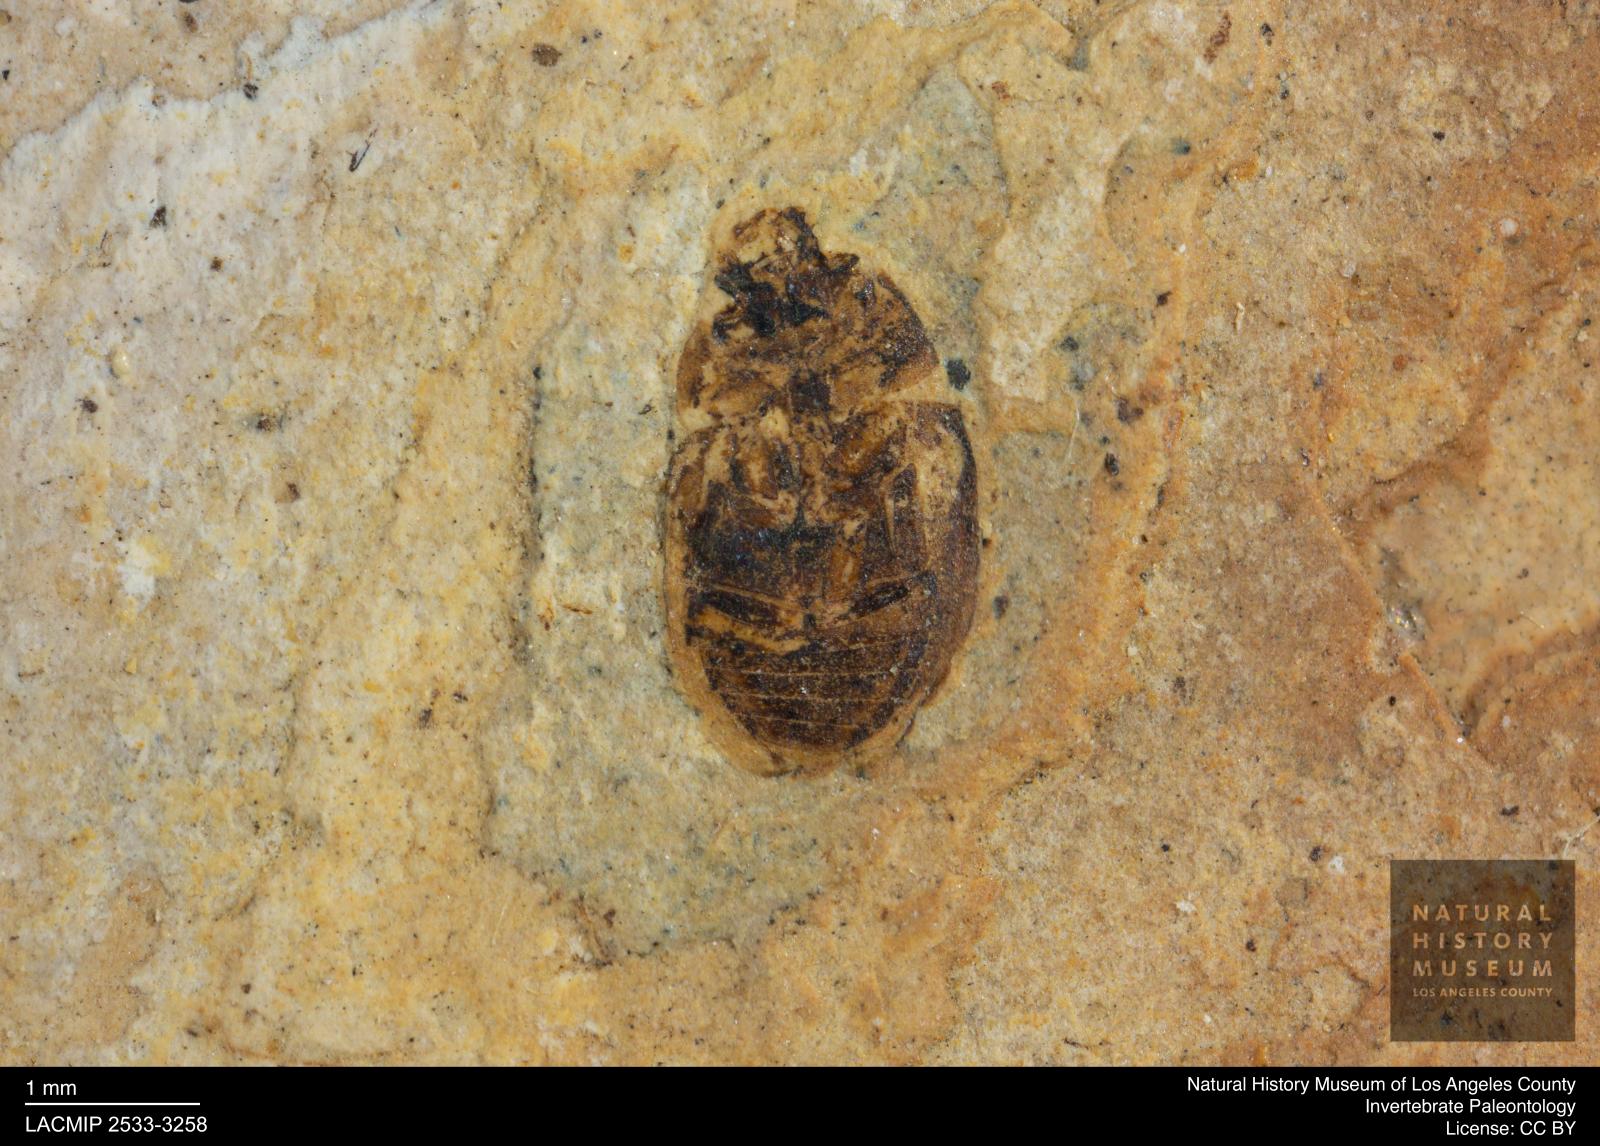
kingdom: Animalia
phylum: Arthropoda
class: Insecta
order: Coleoptera
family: Hydrophilidae
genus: Paracymus
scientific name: Paracymus excitatus
